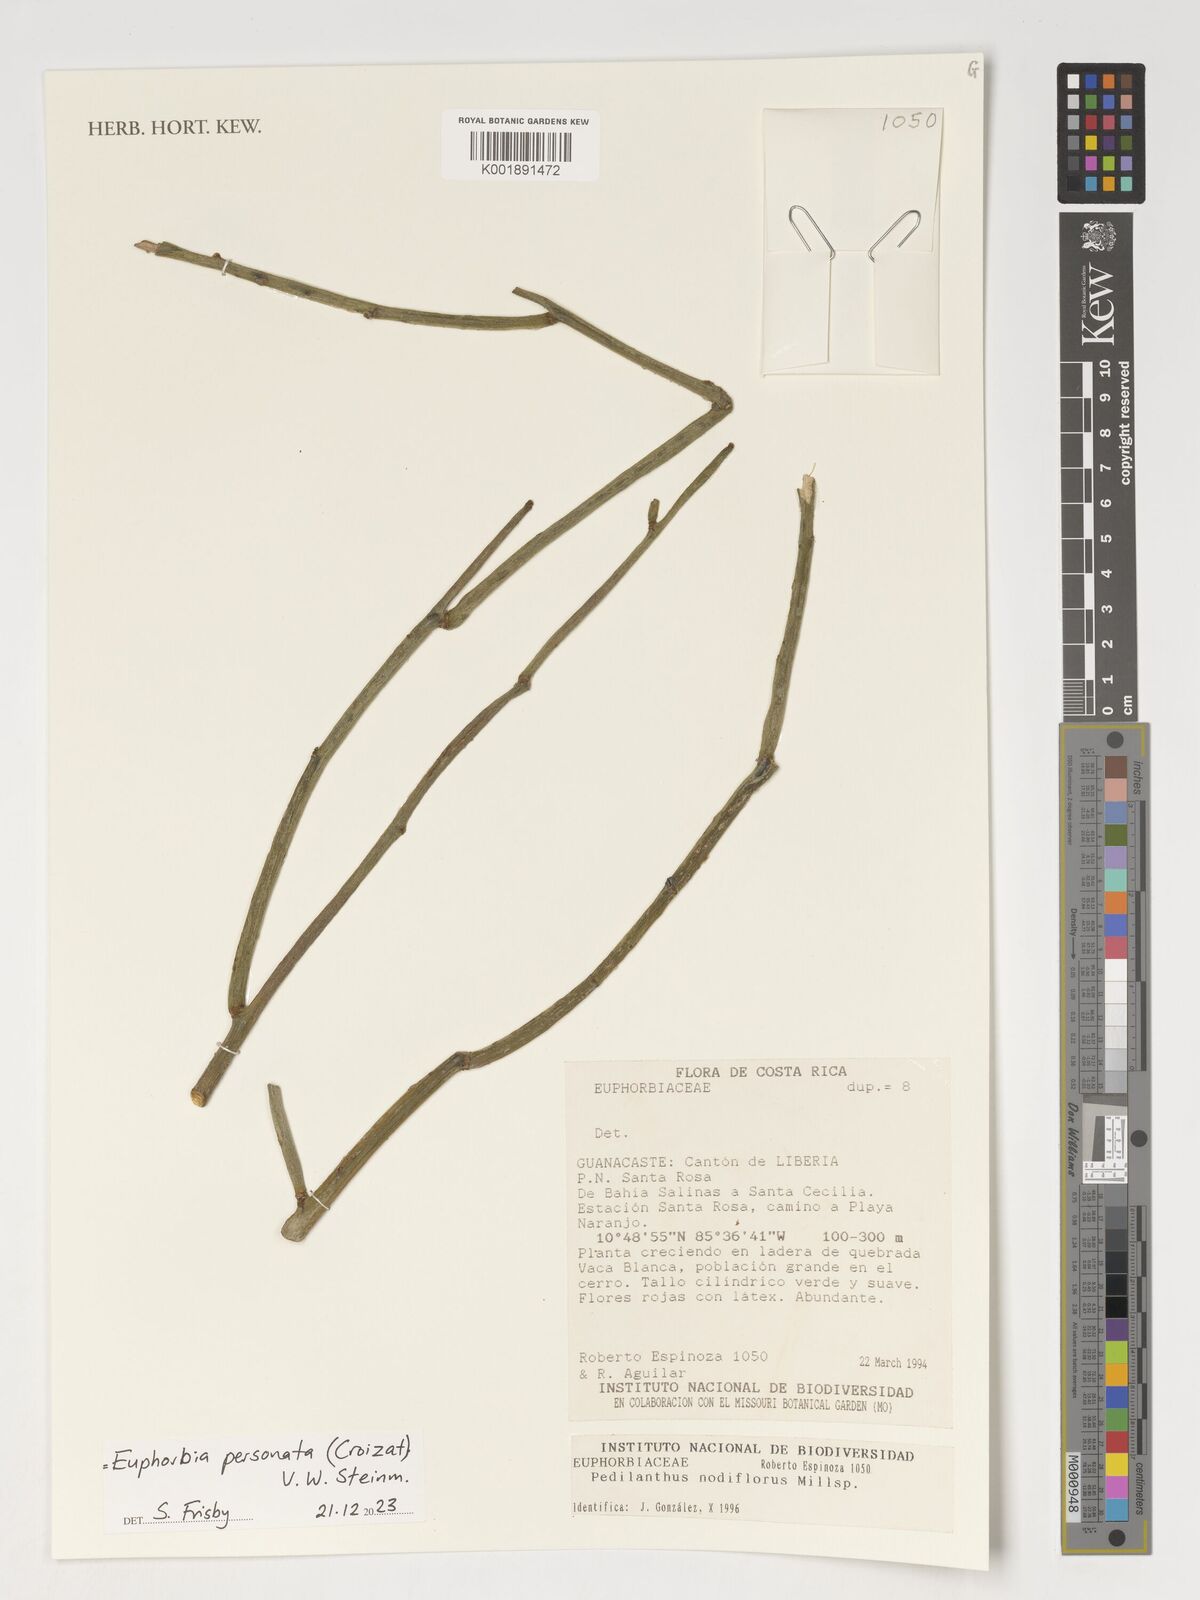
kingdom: Plantae
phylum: Tracheophyta
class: Magnoliopsida
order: Malpighiales
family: Euphorbiaceae
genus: Euphorbia
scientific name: Euphorbia personata
